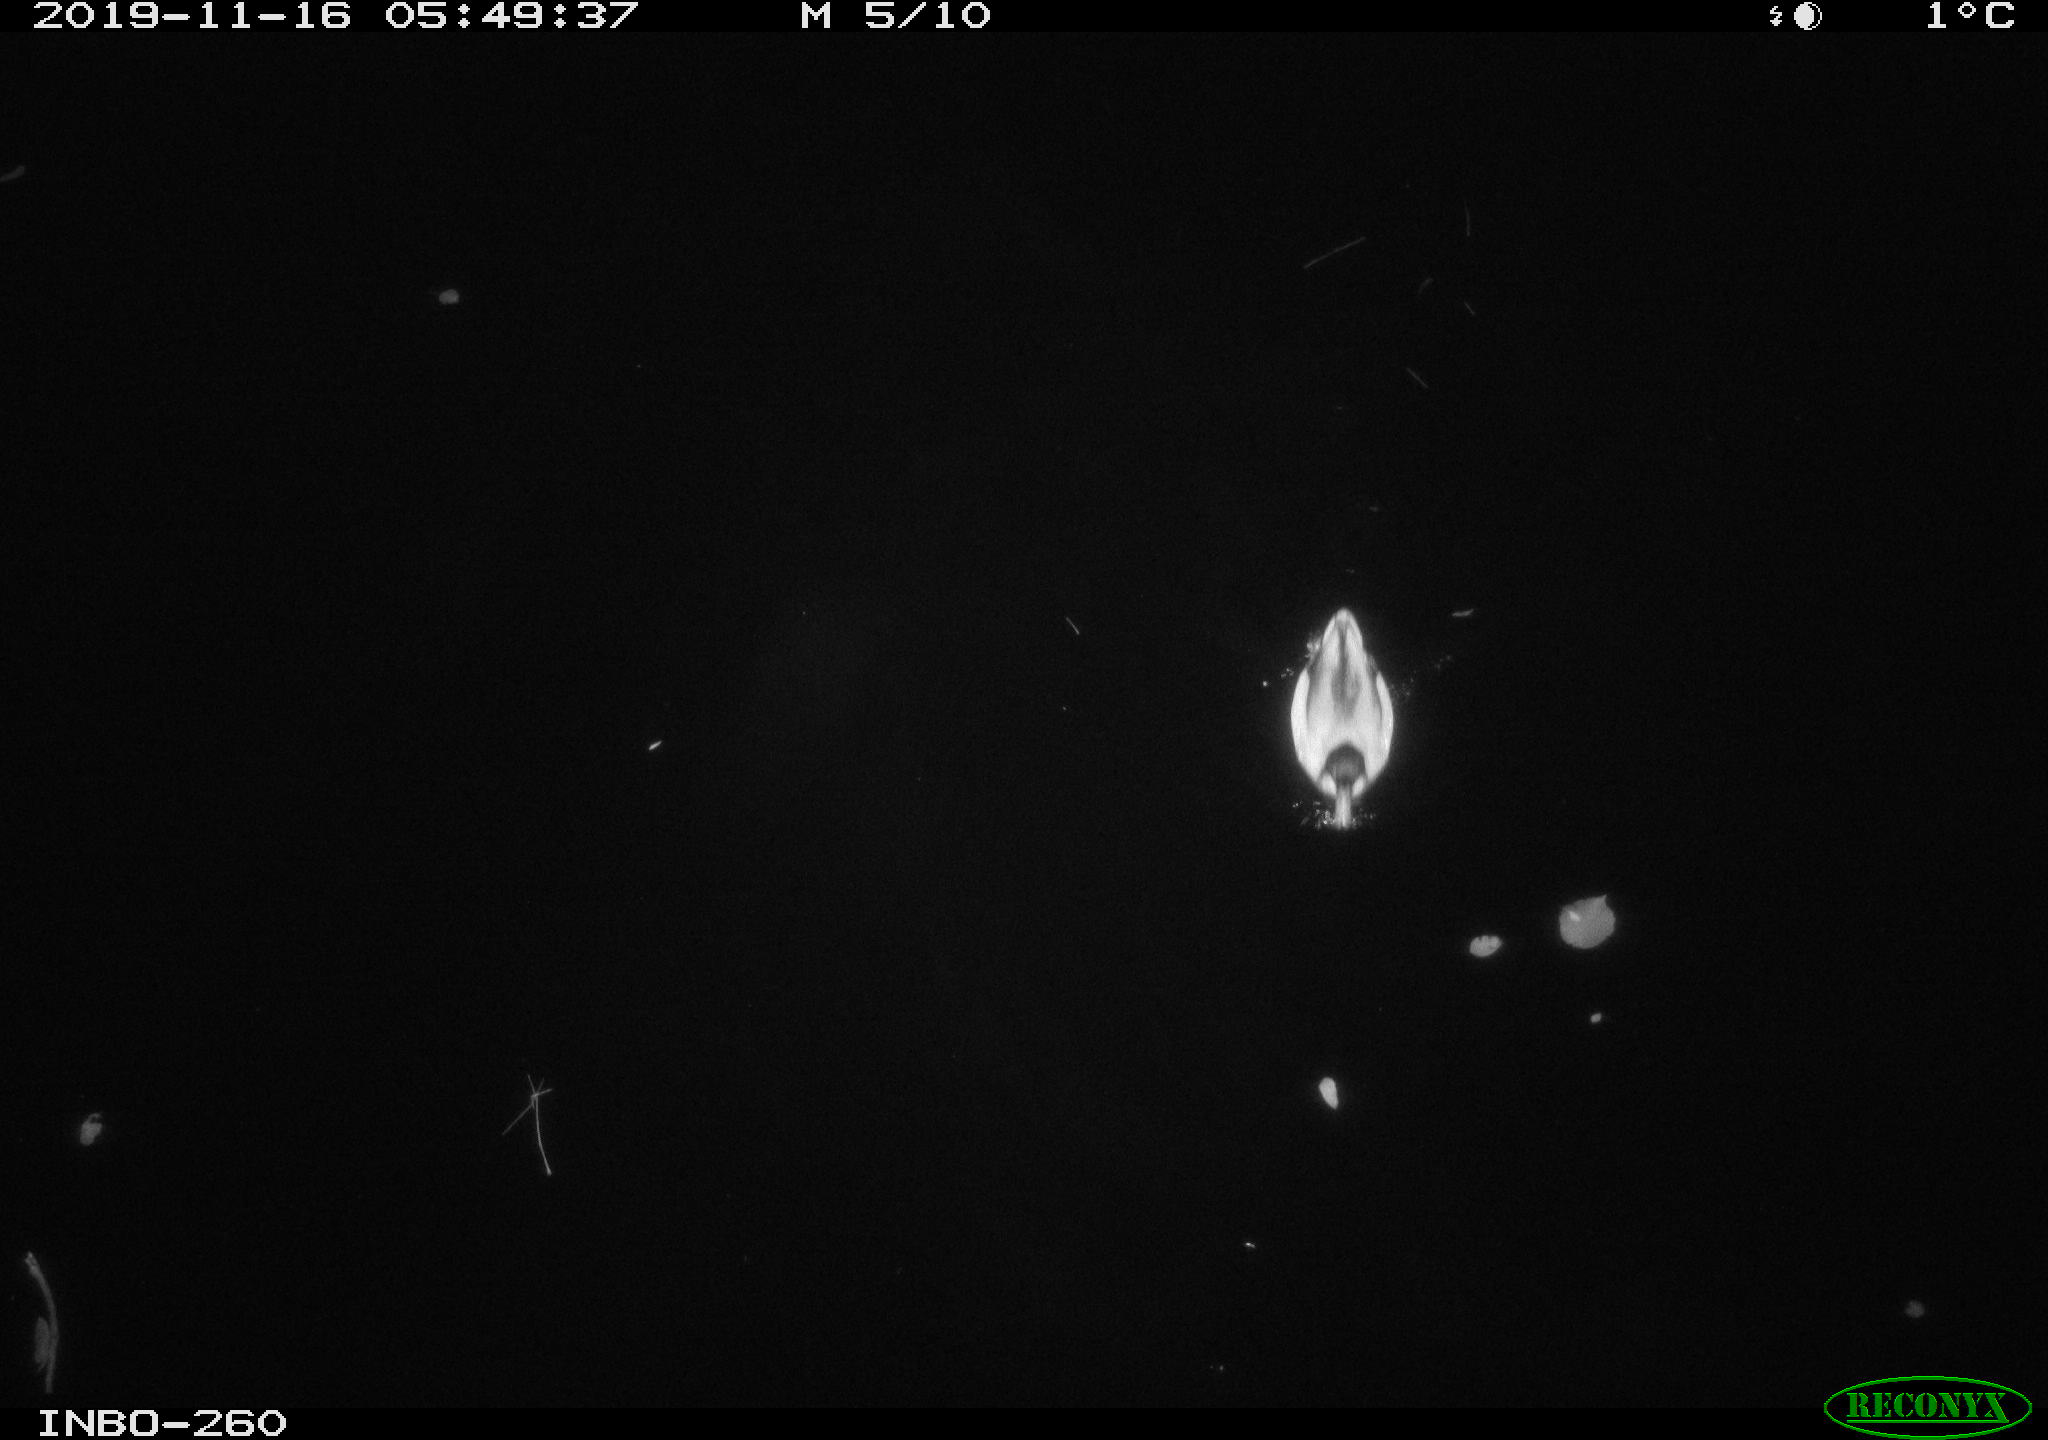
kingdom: Animalia
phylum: Chordata
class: Aves
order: Anseriformes
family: Anatidae
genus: Anas
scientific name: Anas platyrhynchos
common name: Mallard
